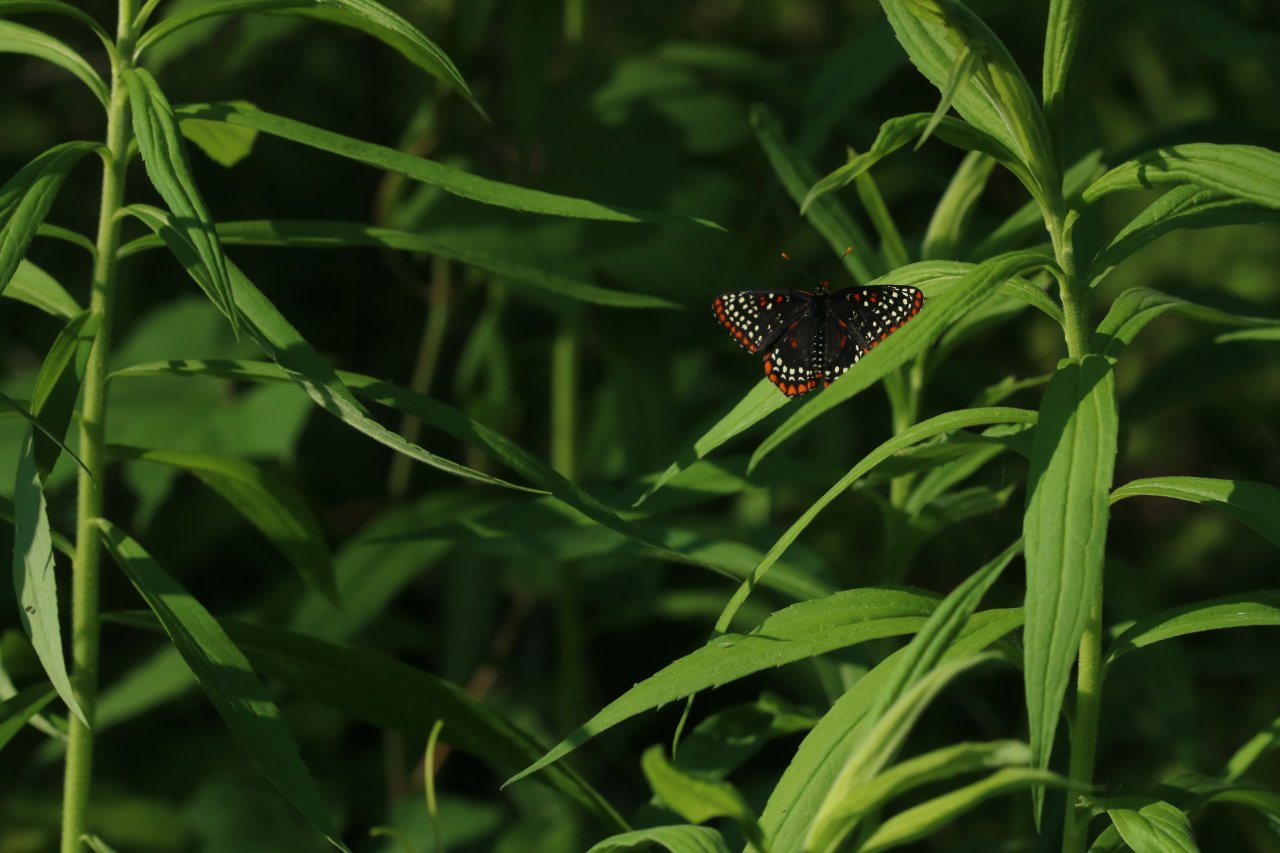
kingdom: Animalia
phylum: Arthropoda
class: Insecta
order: Lepidoptera
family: Nymphalidae
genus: Euphydryas
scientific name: Euphydryas phaeton
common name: Baltimore Checkerspot
